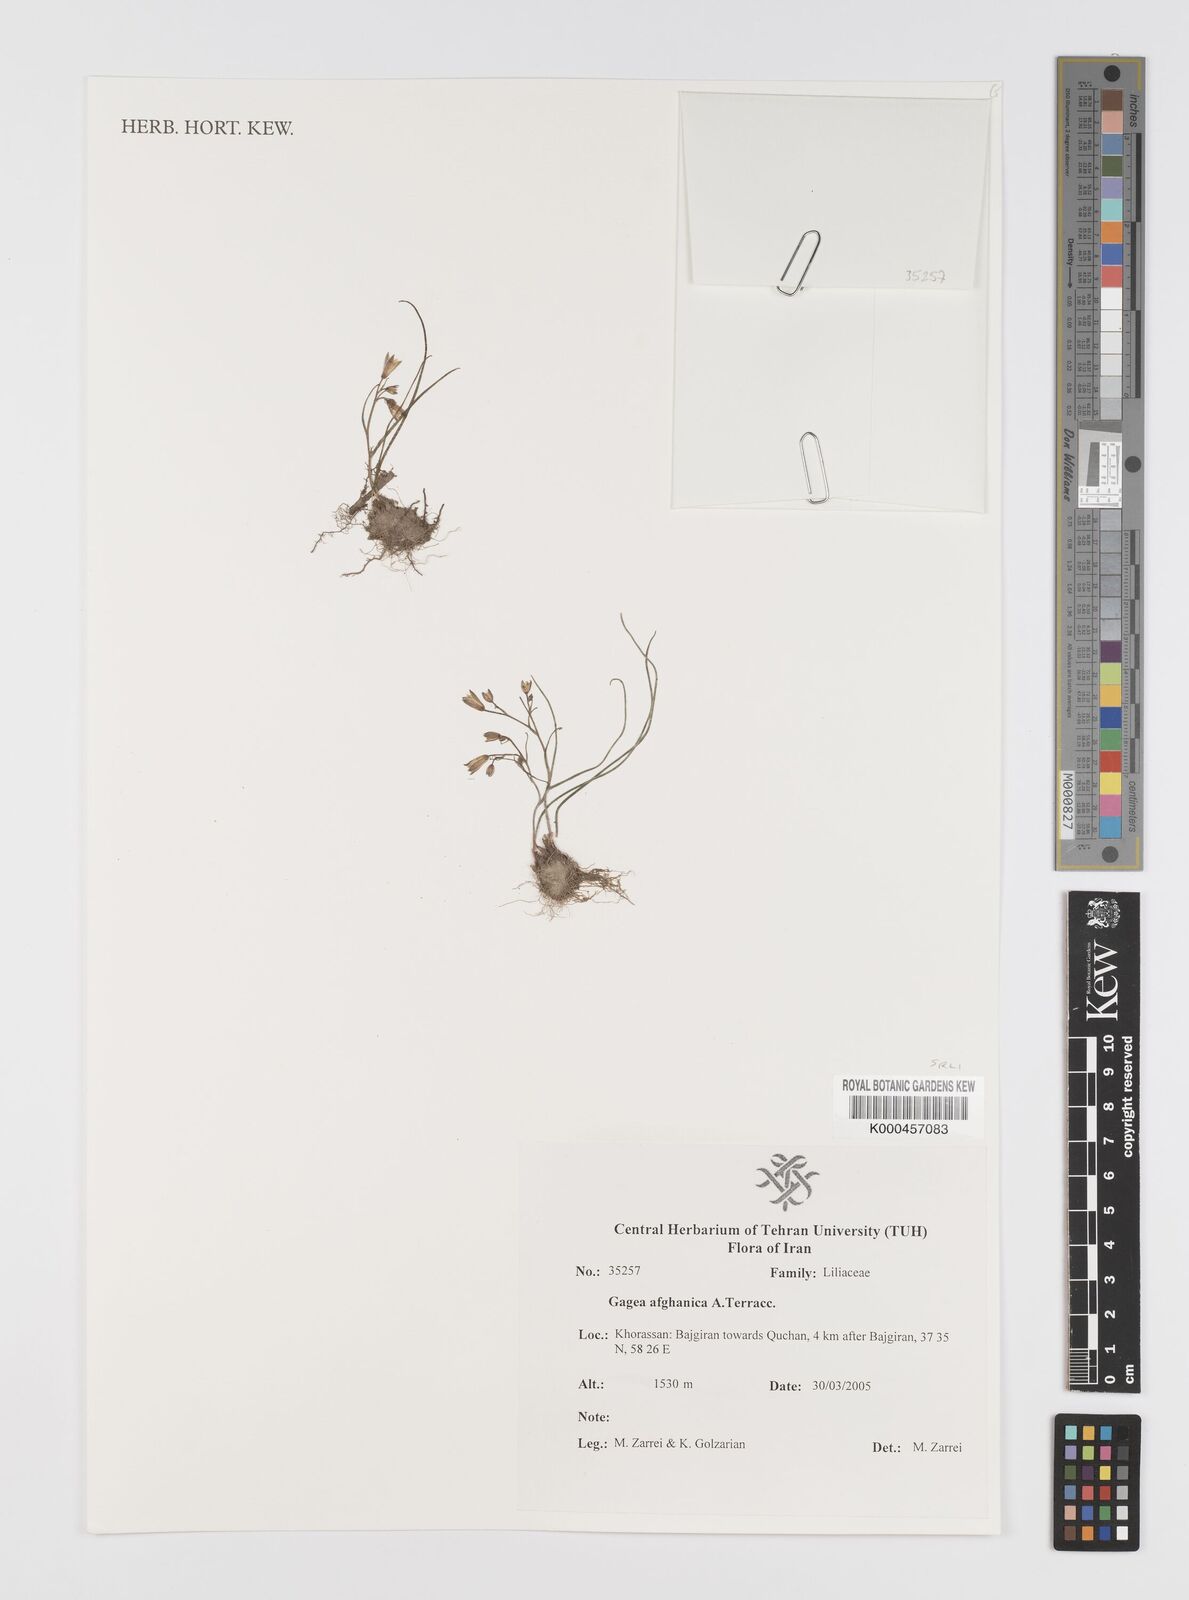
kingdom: Plantae
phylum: Tracheophyta
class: Liliopsida
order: Liliales
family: Liliaceae
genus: Gagea
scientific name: Gagea afghanica
